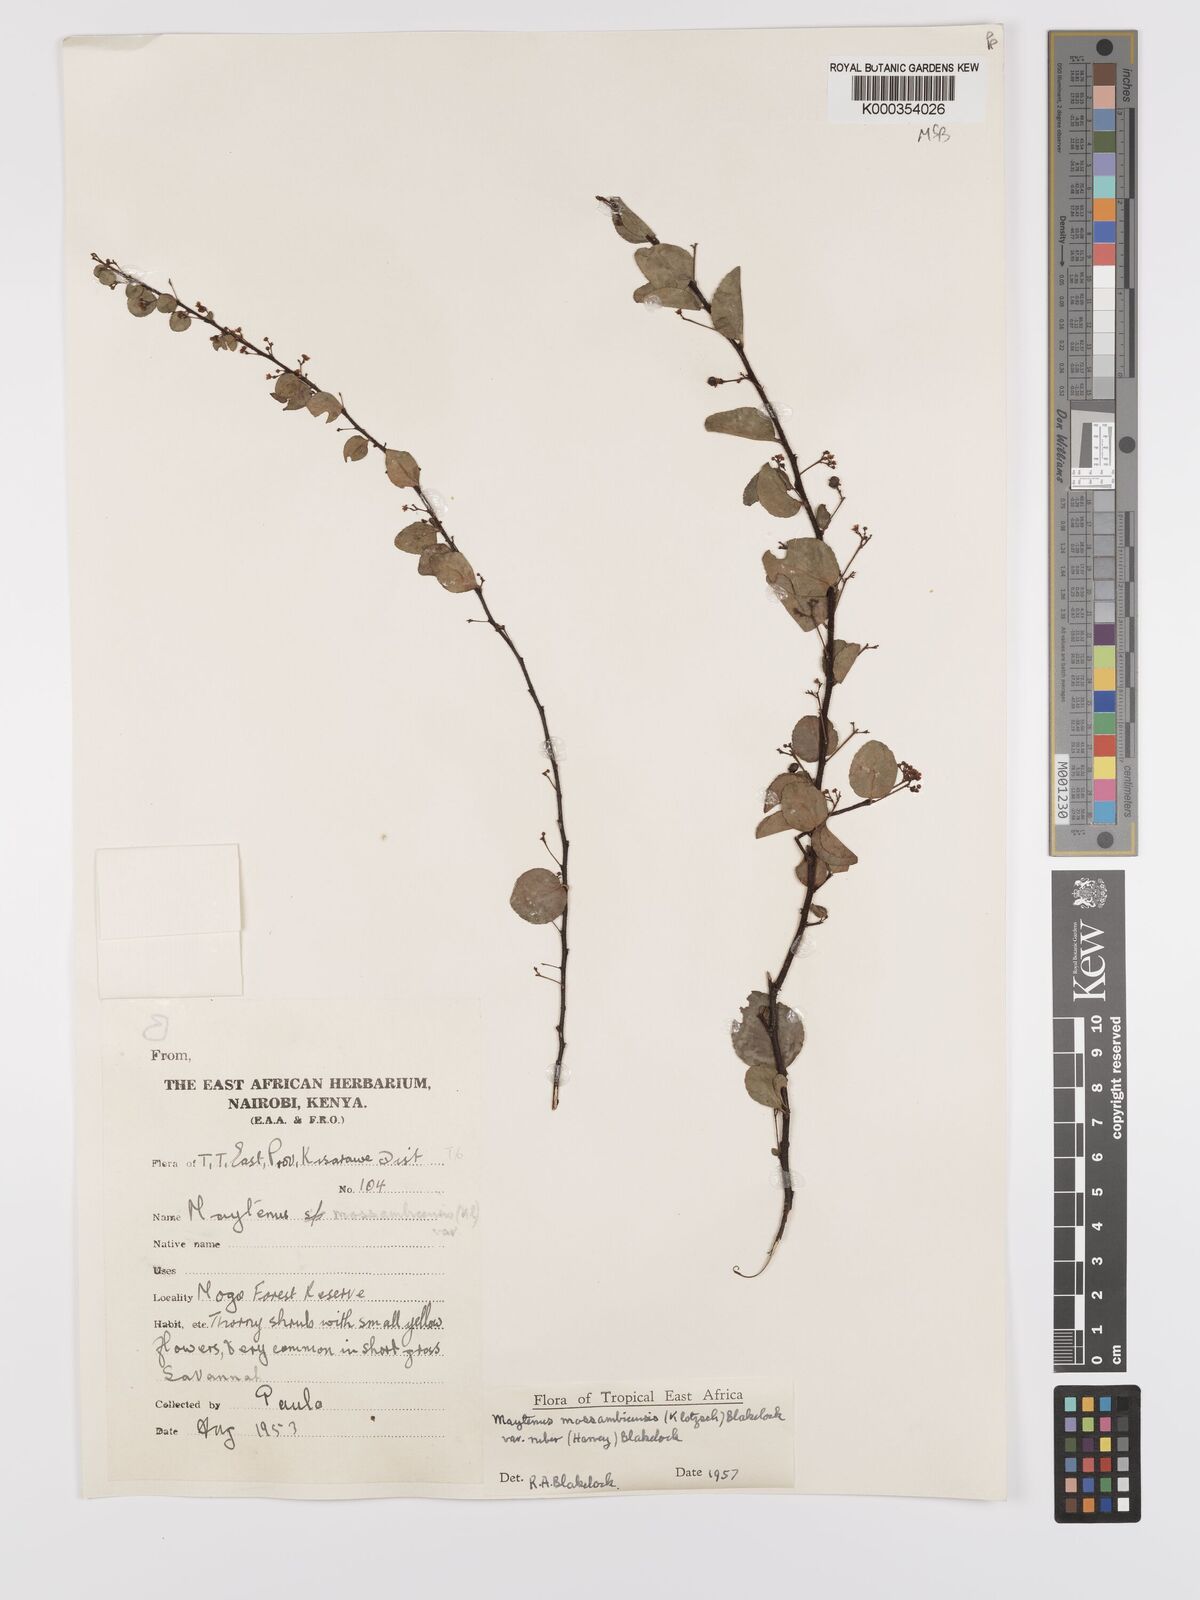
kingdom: Plantae
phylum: Tracheophyta
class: Magnoliopsida
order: Celastrales
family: Celastraceae
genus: Gymnosporia
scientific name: Gymnosporia mossambicensis
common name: Black forest spike-thorn
